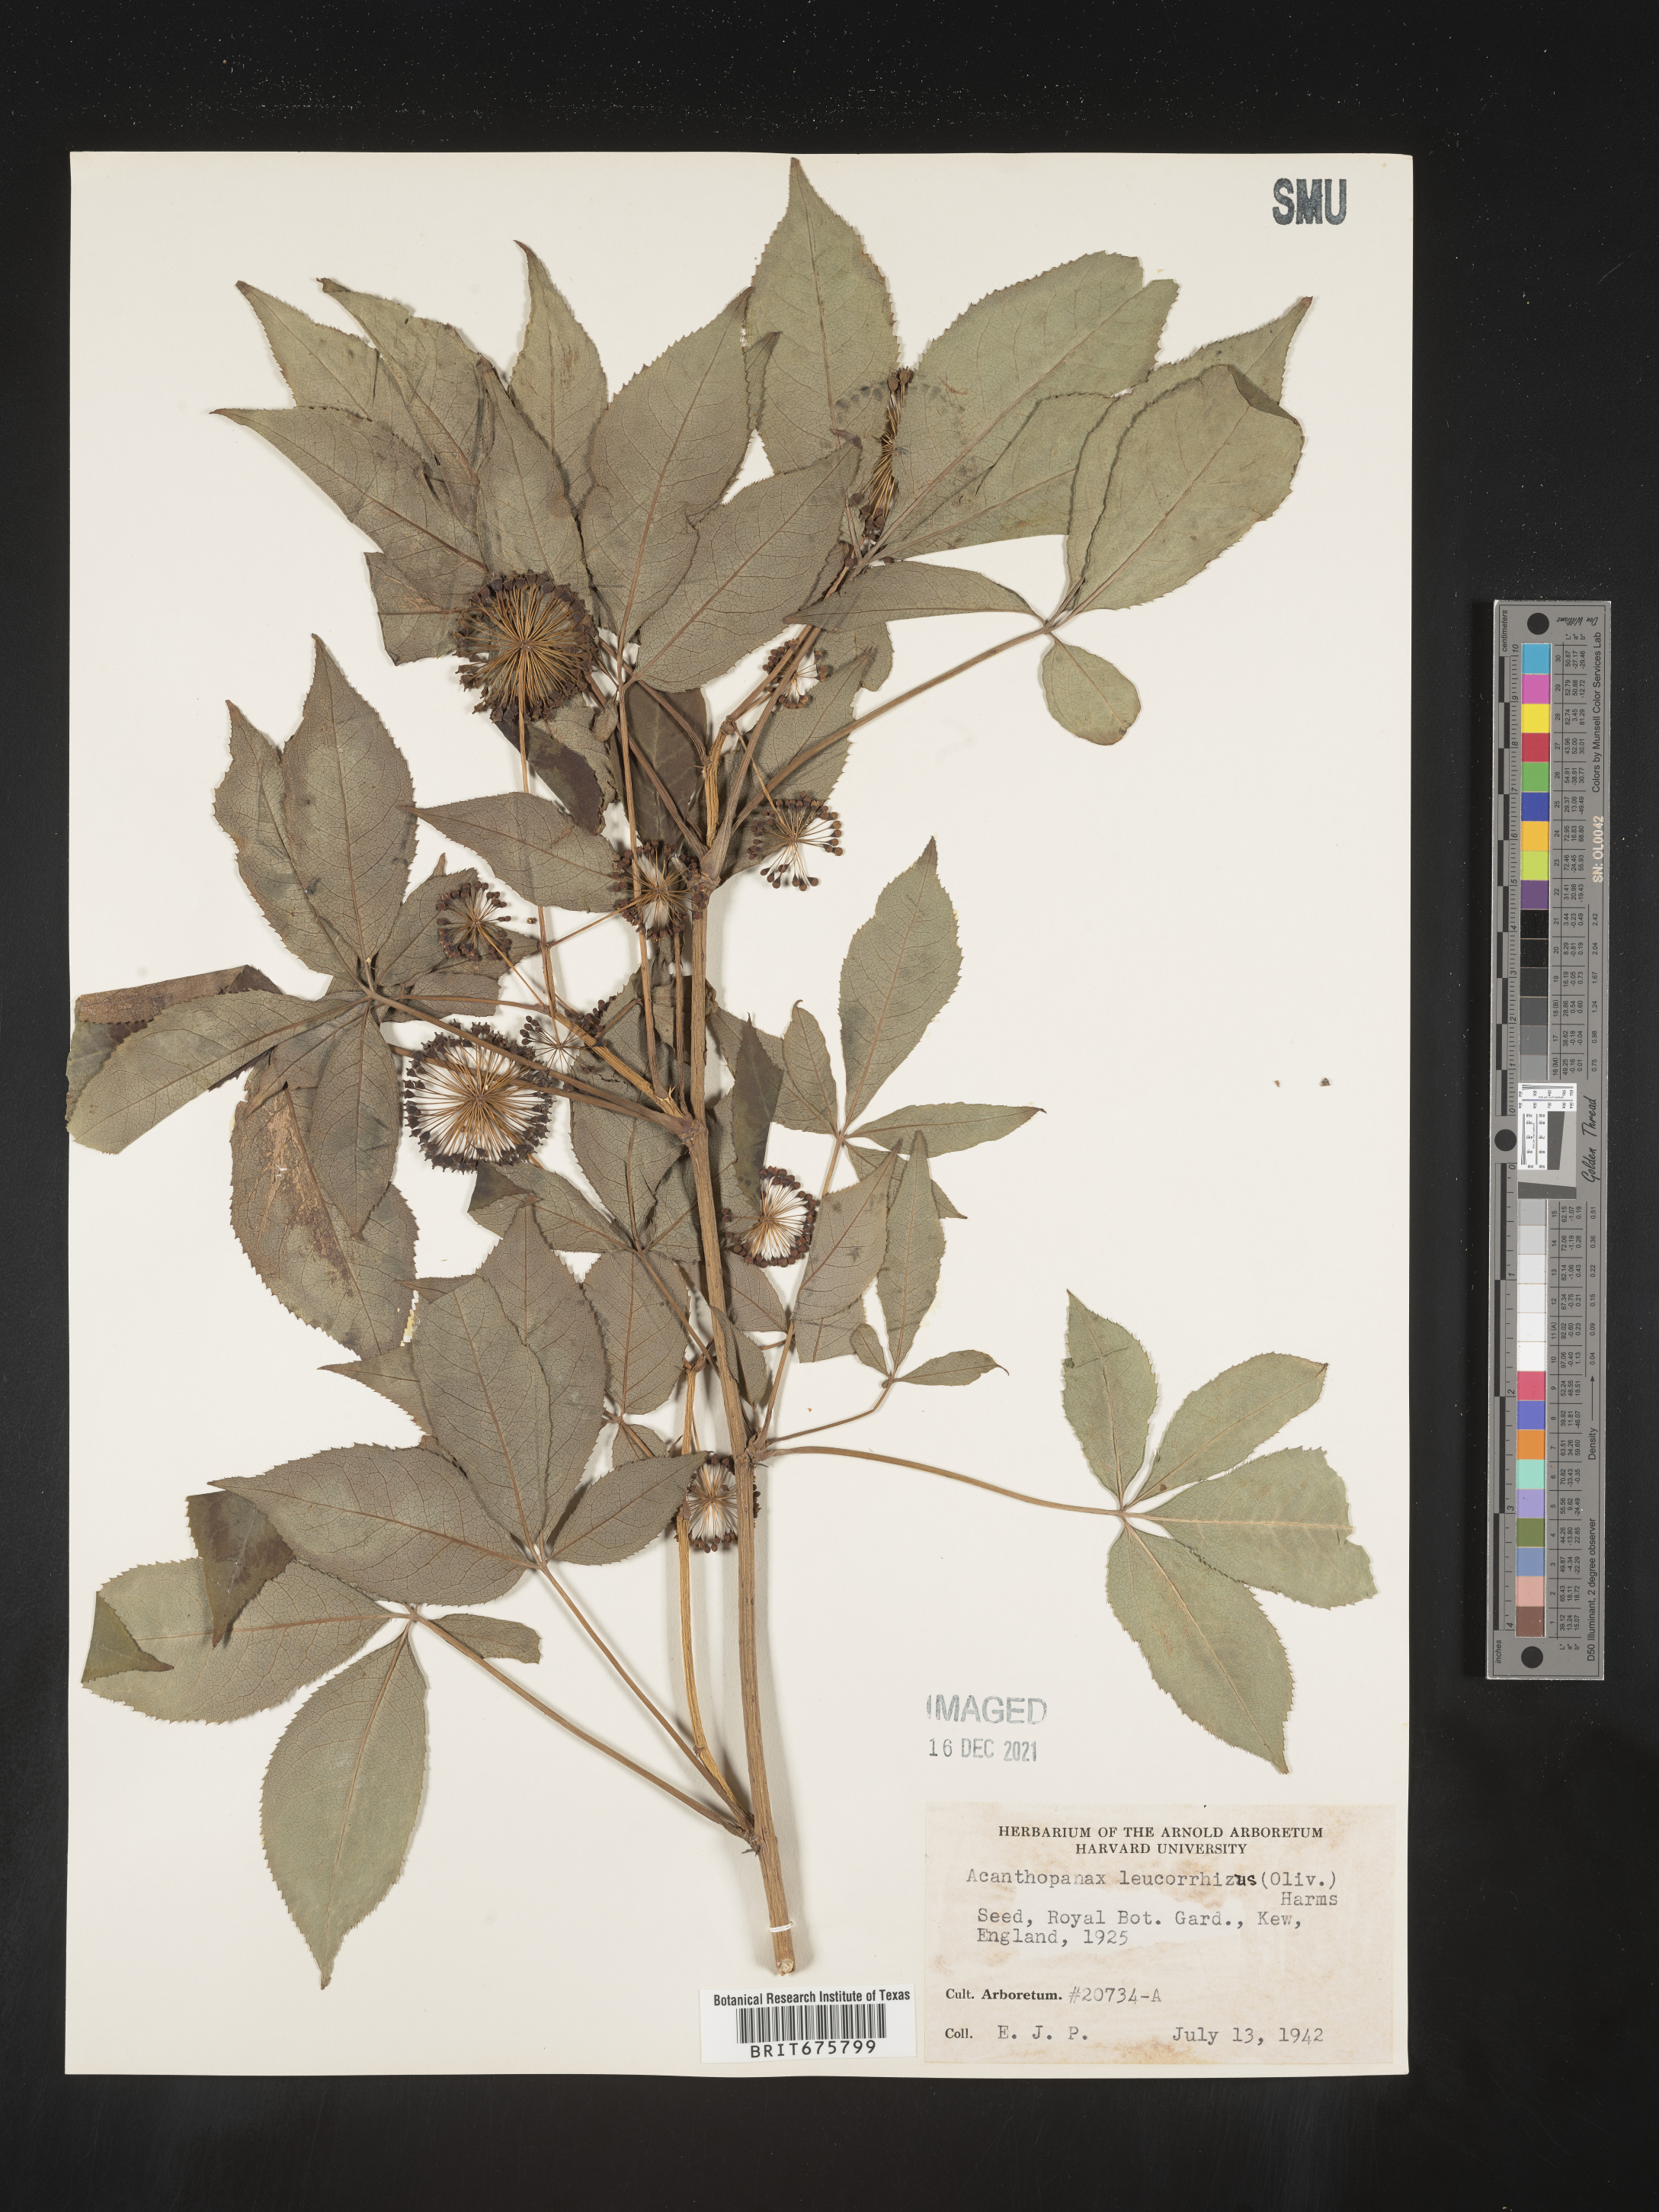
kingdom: Plantae
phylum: Tracheophyta
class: Magnoliopsida
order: Apiales
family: Araliaceae
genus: Acanthopanax
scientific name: Acanthopanax
